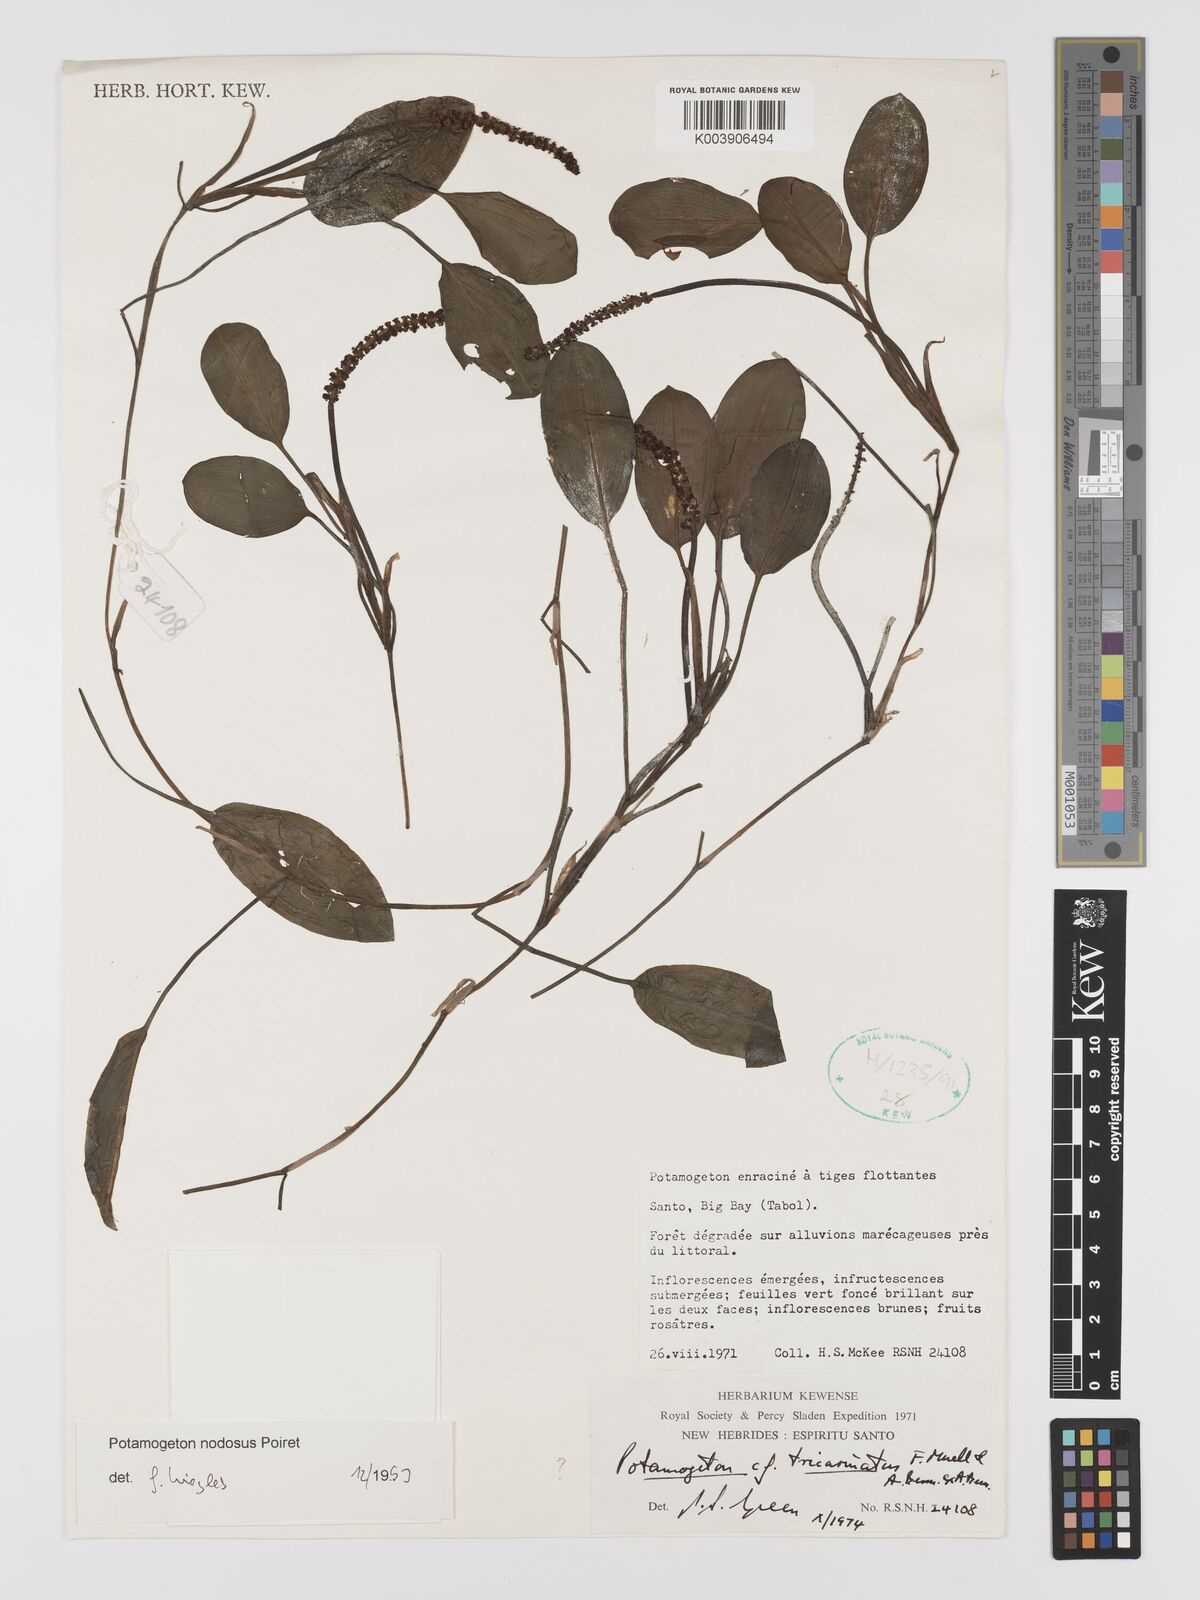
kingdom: Plantae
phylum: Tracheophyta
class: Liliopsida
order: Alismatales
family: Potamogetonaceae
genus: Potamogeton
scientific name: Potamogeton nodosus
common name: Loddon pondweed
